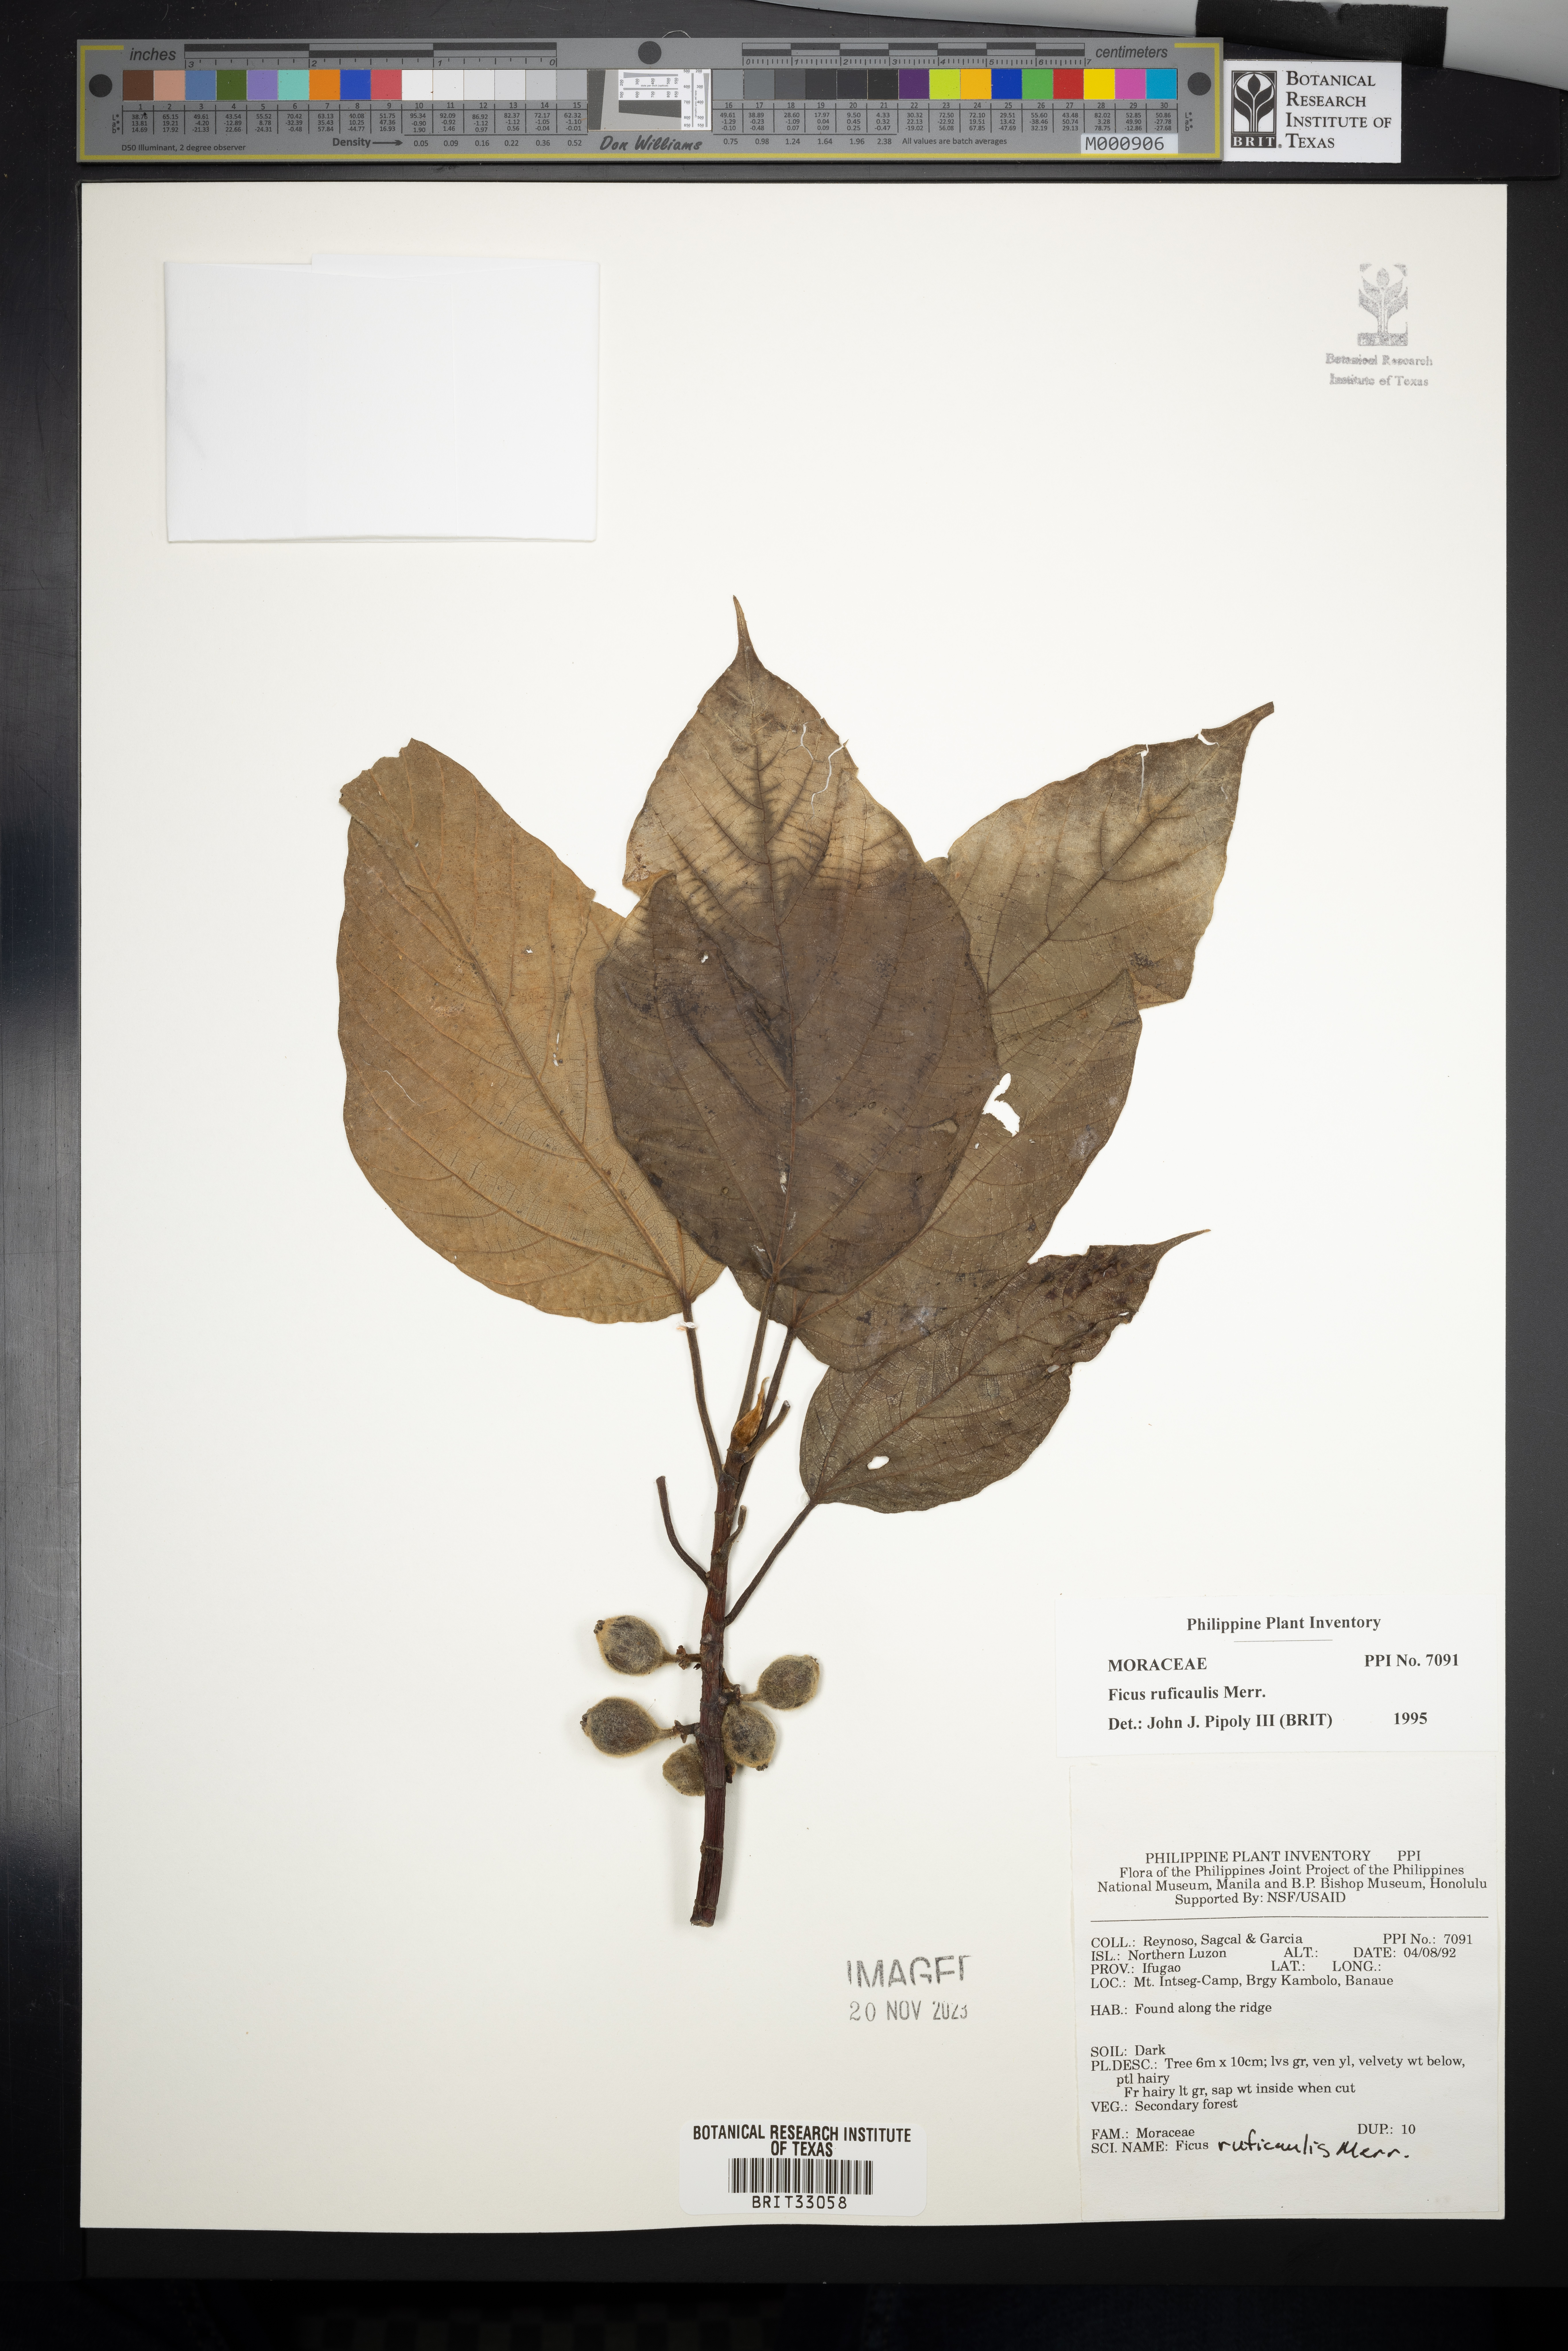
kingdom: Plantae
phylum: Tracheophyta
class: Magnoliopsida
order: Rosales
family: Moraceae
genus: Ficus
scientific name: Ficus ruficaulis
